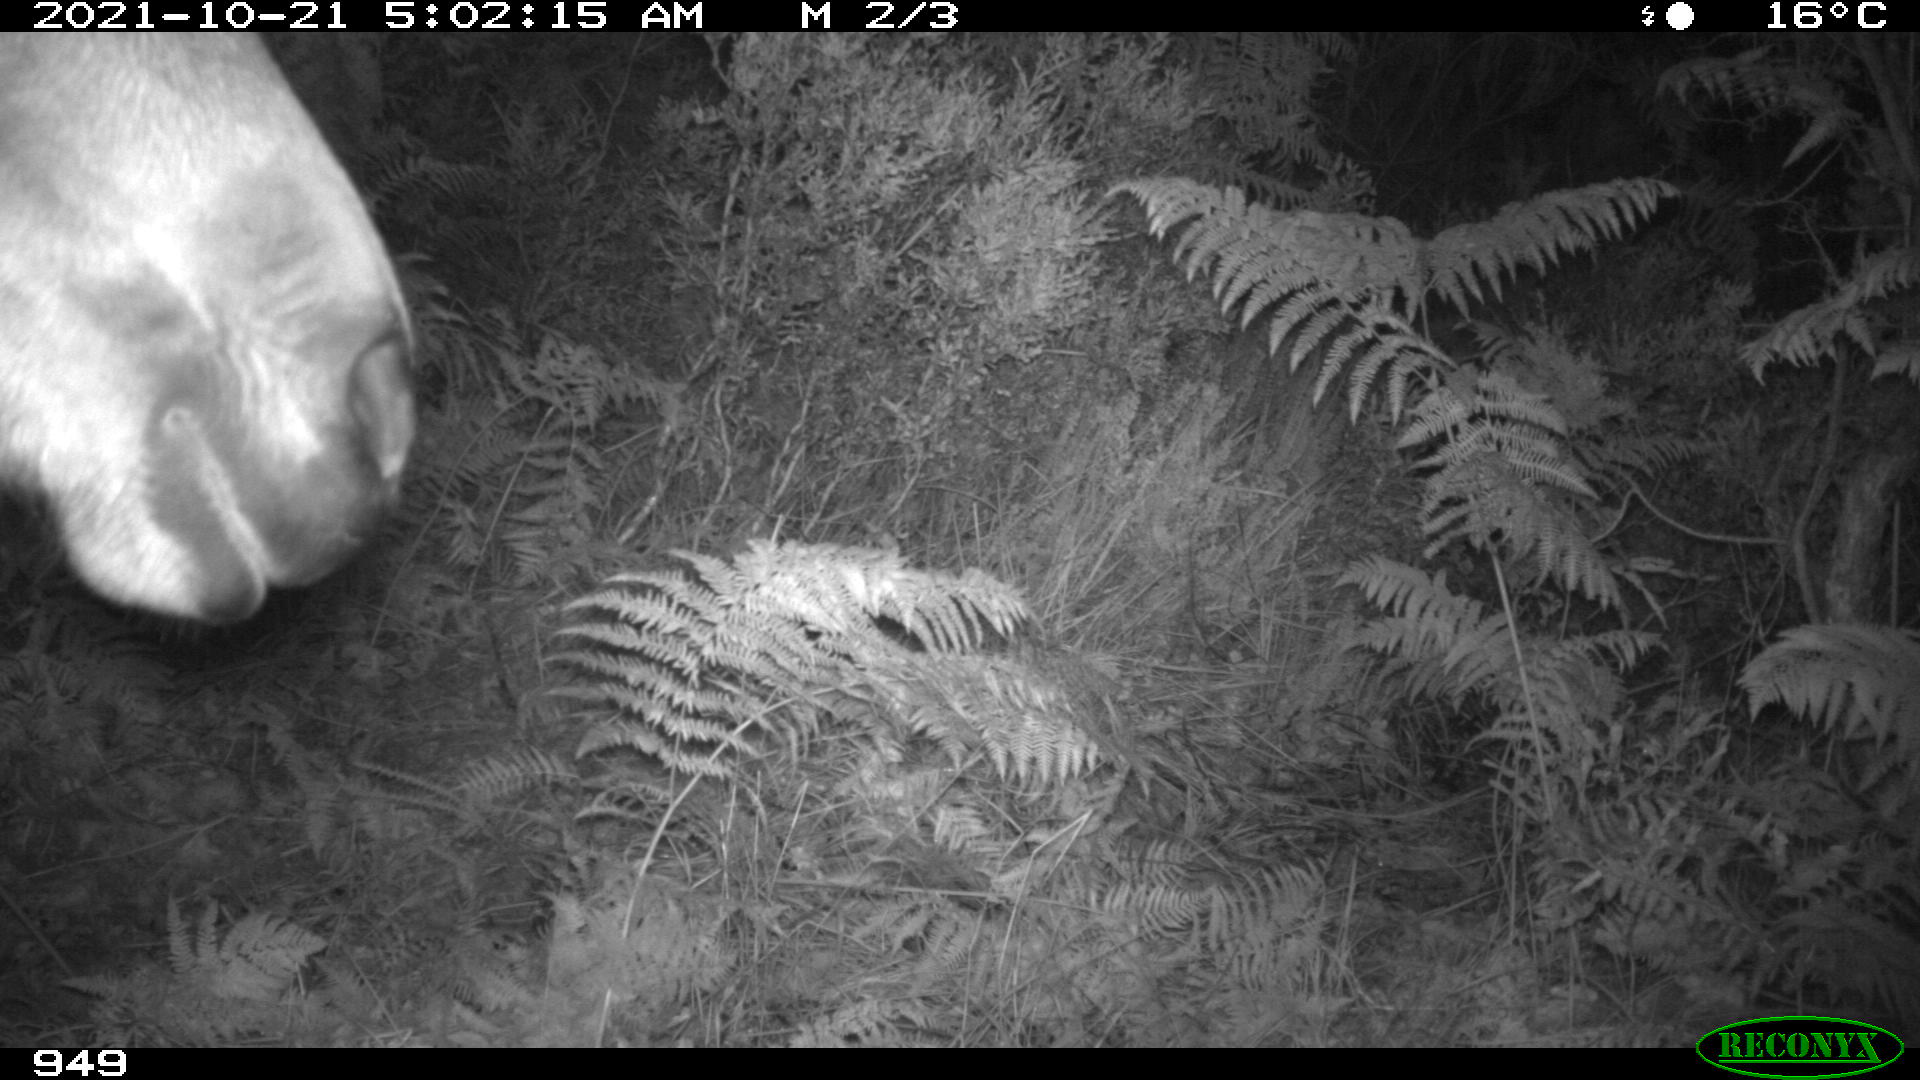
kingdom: Animalia
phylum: Chordata
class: Mammalia
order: Perissodactyla
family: Equidae
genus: Equus
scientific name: Equus caballus
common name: Horse
